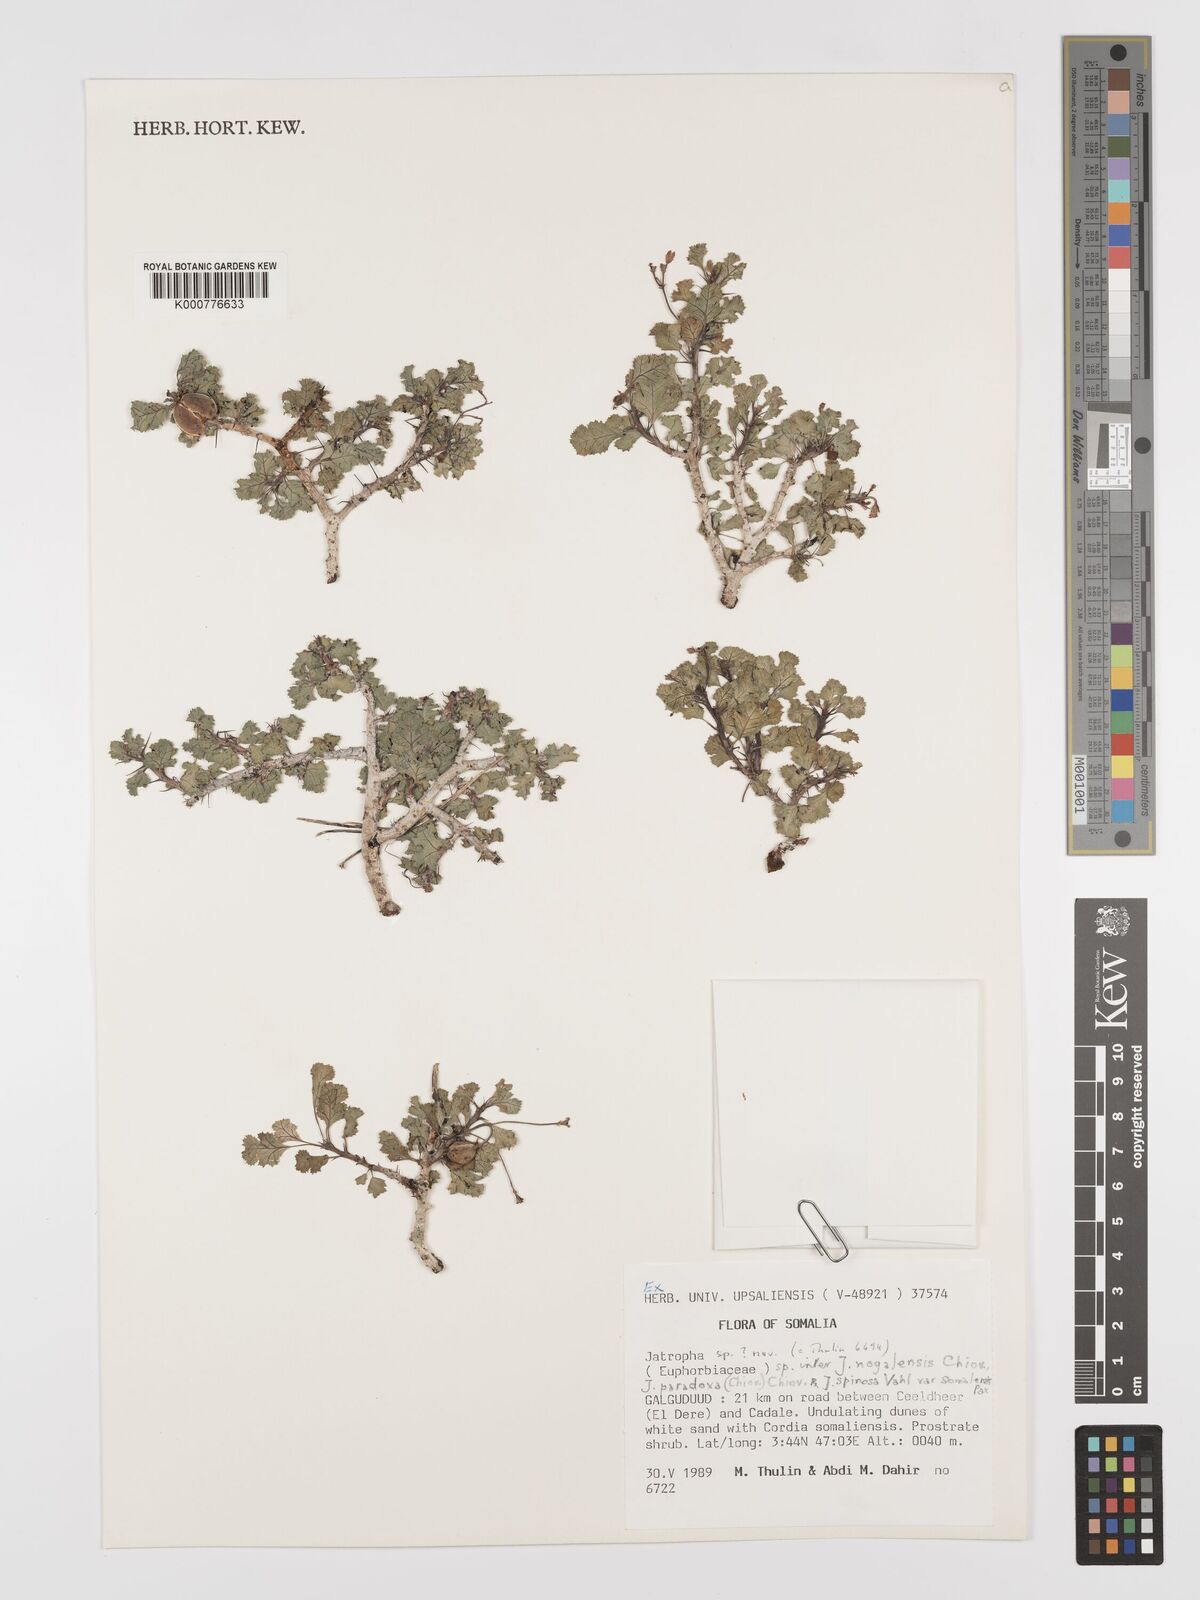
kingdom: Plantae
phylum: Tracheophyta
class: Magnoliopsida
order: Malpighiales
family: Euphorbiaceae
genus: Jatropha
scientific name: Jatropha nogalensis
